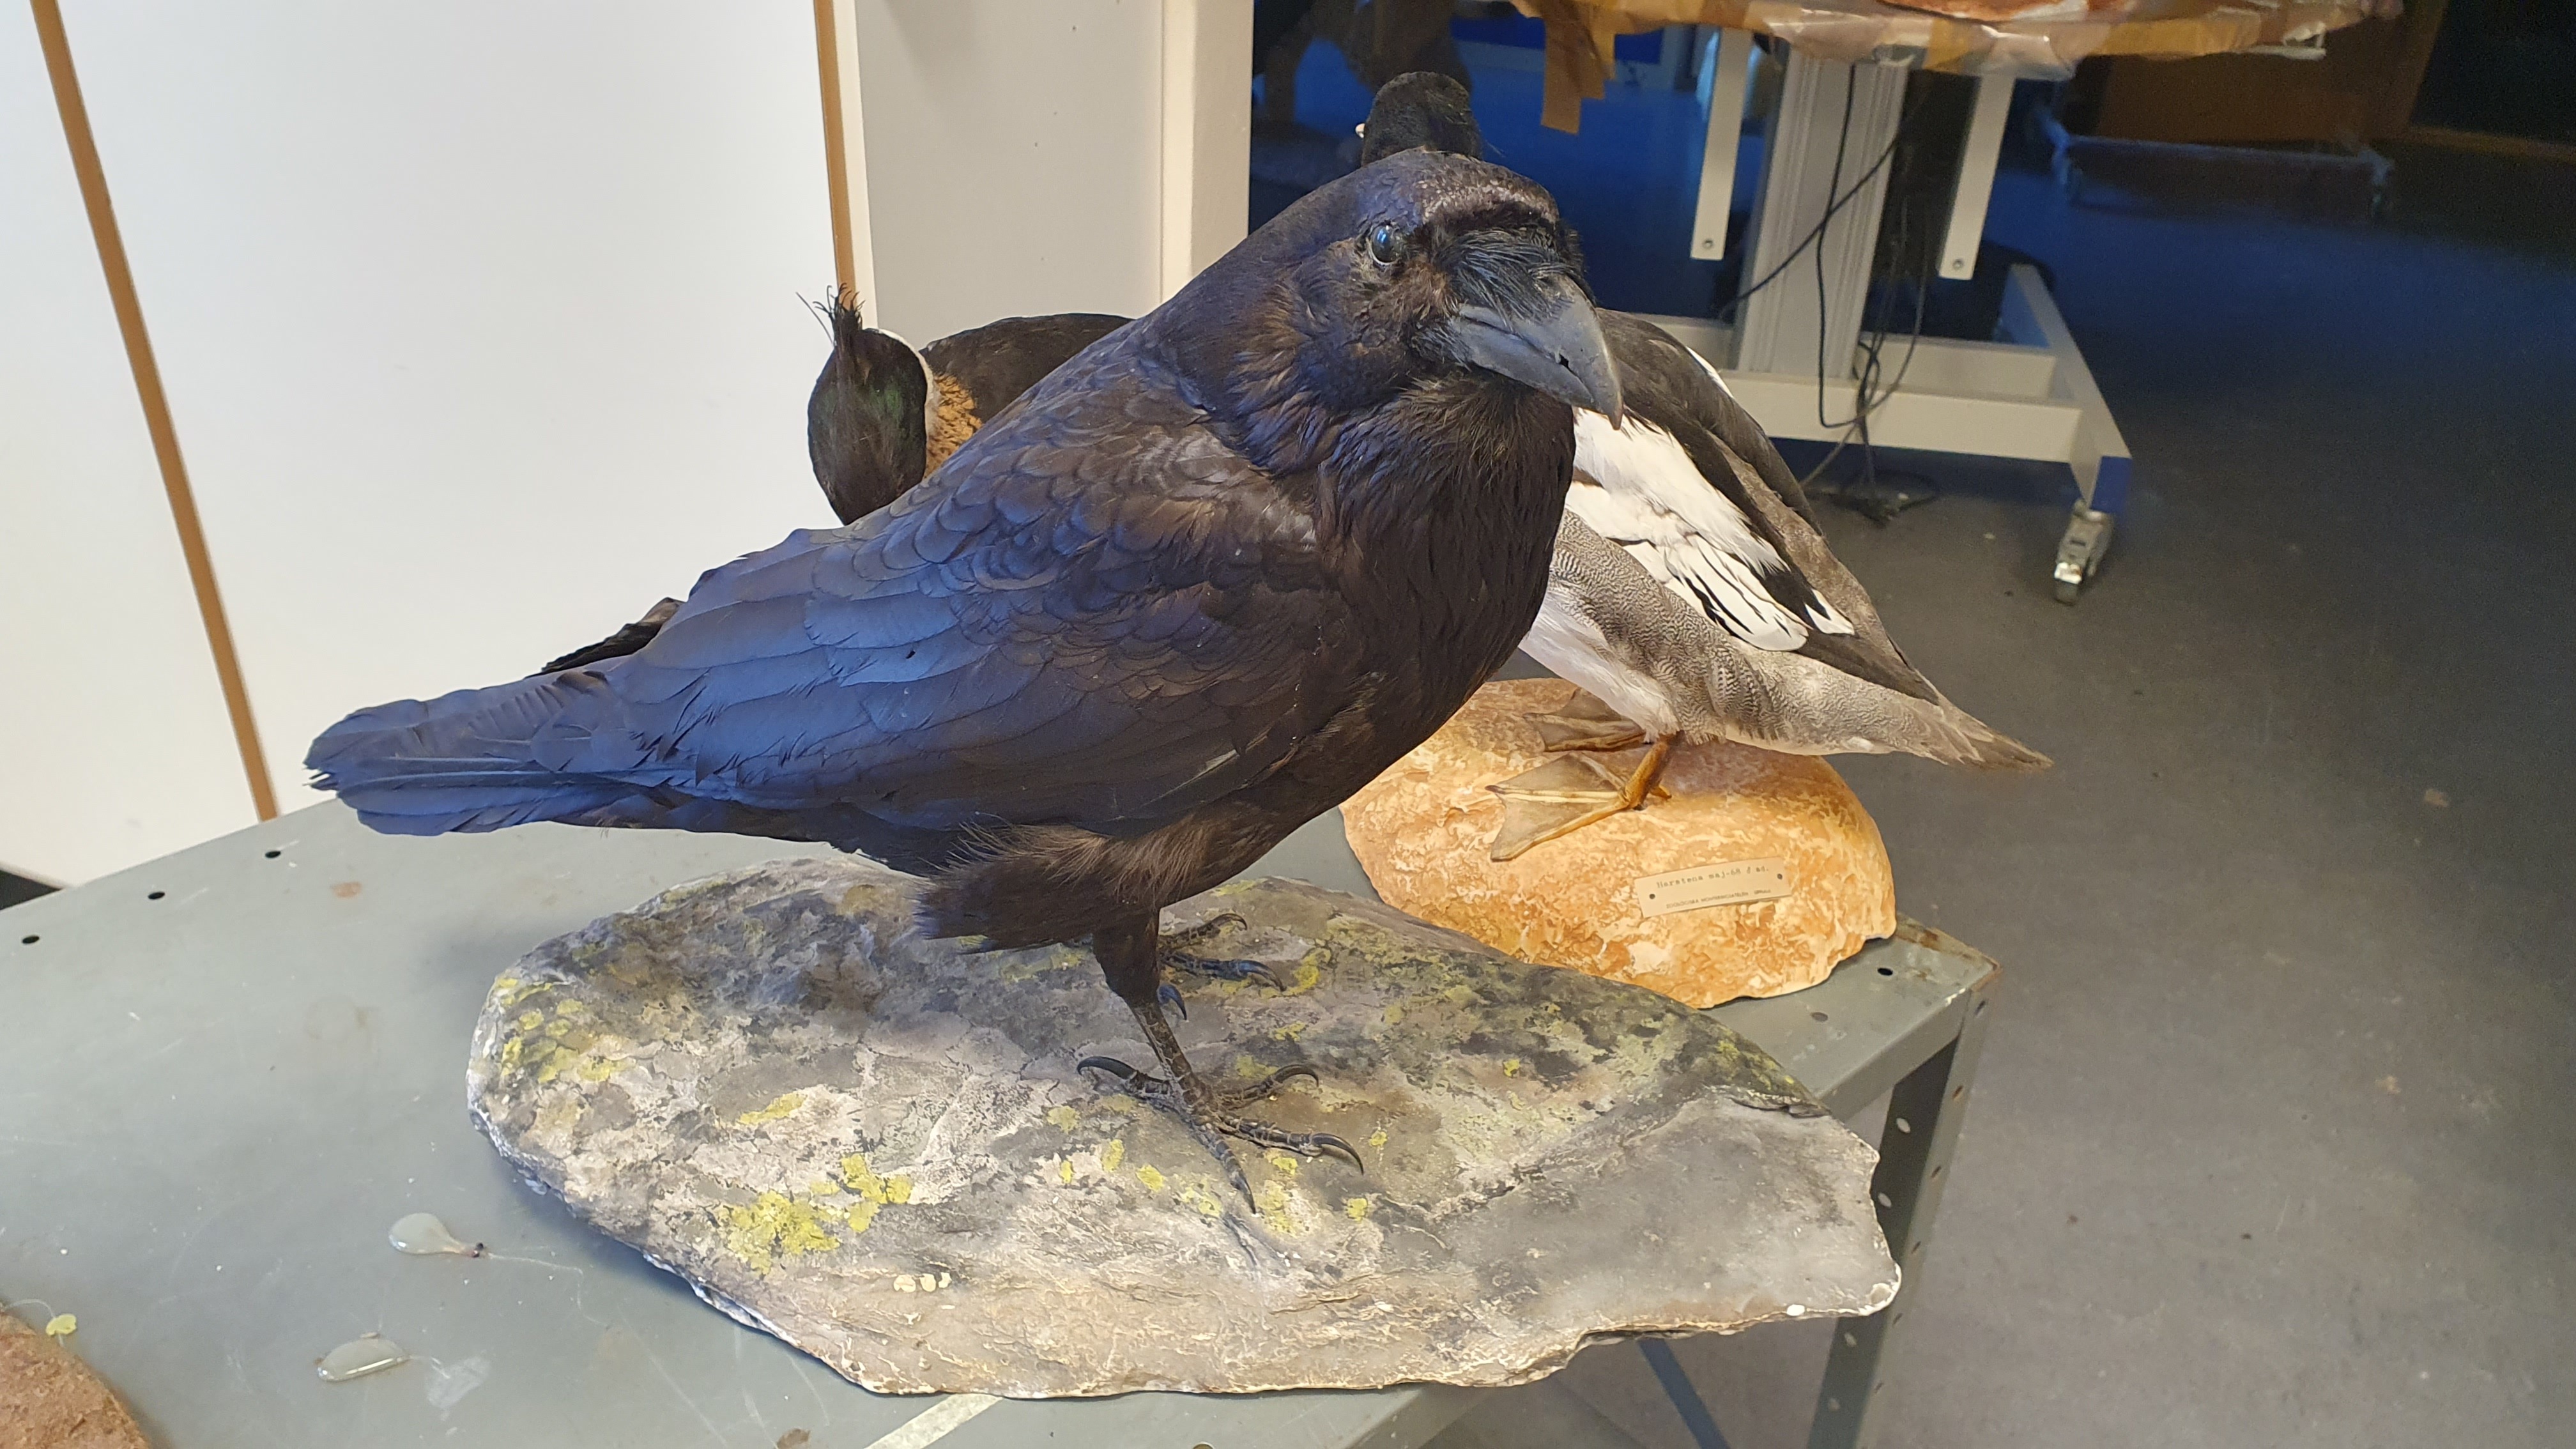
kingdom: Animalia
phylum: Chordata
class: Aves
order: Passeriformes
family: Corvidae
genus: Corvus
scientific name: Corvus corax
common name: Common raven
